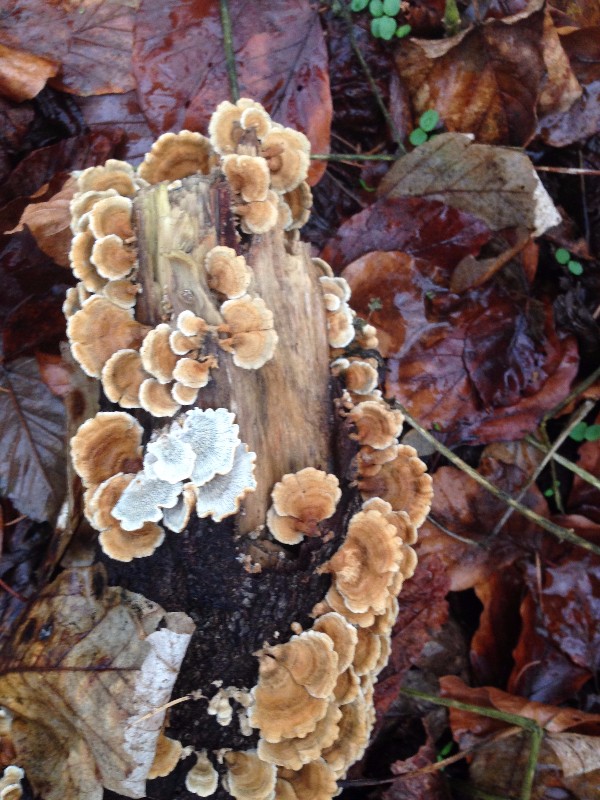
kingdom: Fungi
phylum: Basidiomycota
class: Agaricomycetes
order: Amylocorticiales
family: Amylocorticiaceae
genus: Plicaturopsis
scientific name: Plicaturopsis crispa
